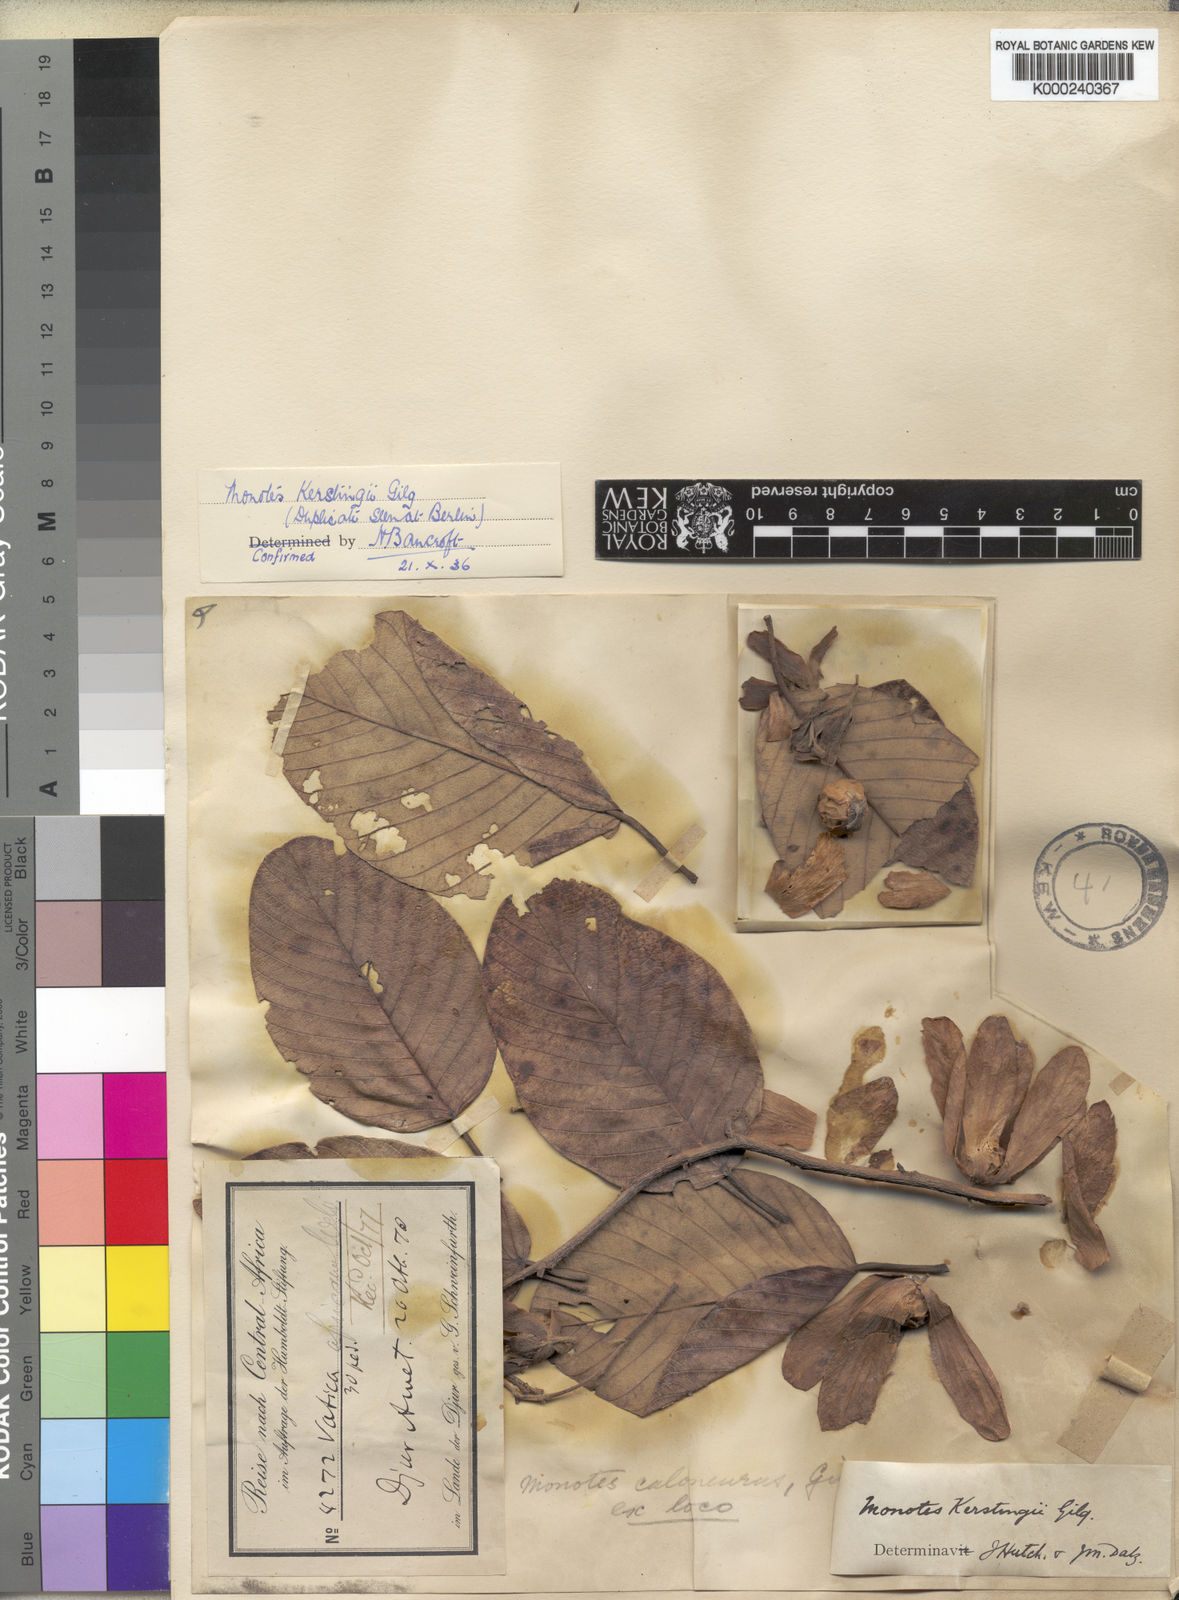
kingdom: Plantae
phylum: Tracheophyta
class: Magnoliopsida
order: Malvales
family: Dipterocarpaceae
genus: Monotes
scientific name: Monotes hypoleucus
